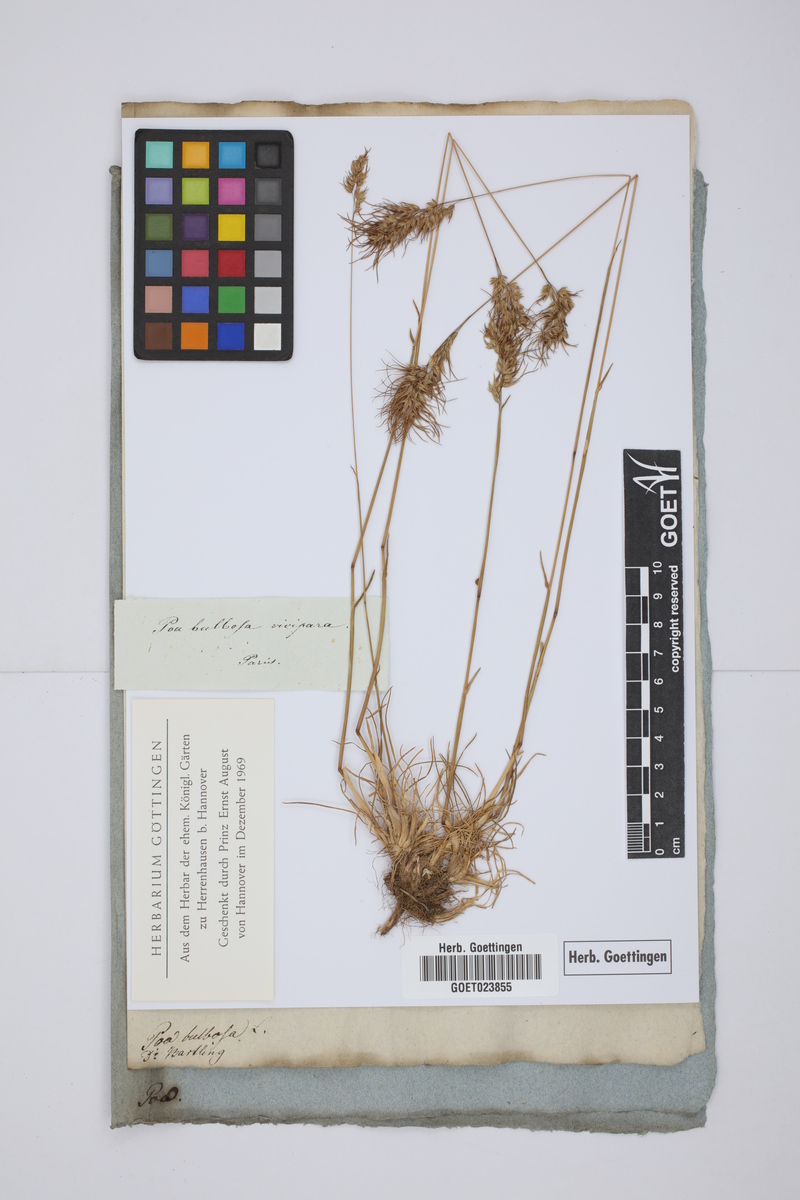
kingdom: Plantae
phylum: Tracheophyta
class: Liliopsida
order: Poales
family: Poaceae
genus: Poa
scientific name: Poa bulbosa
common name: Bulbous bluegrass
